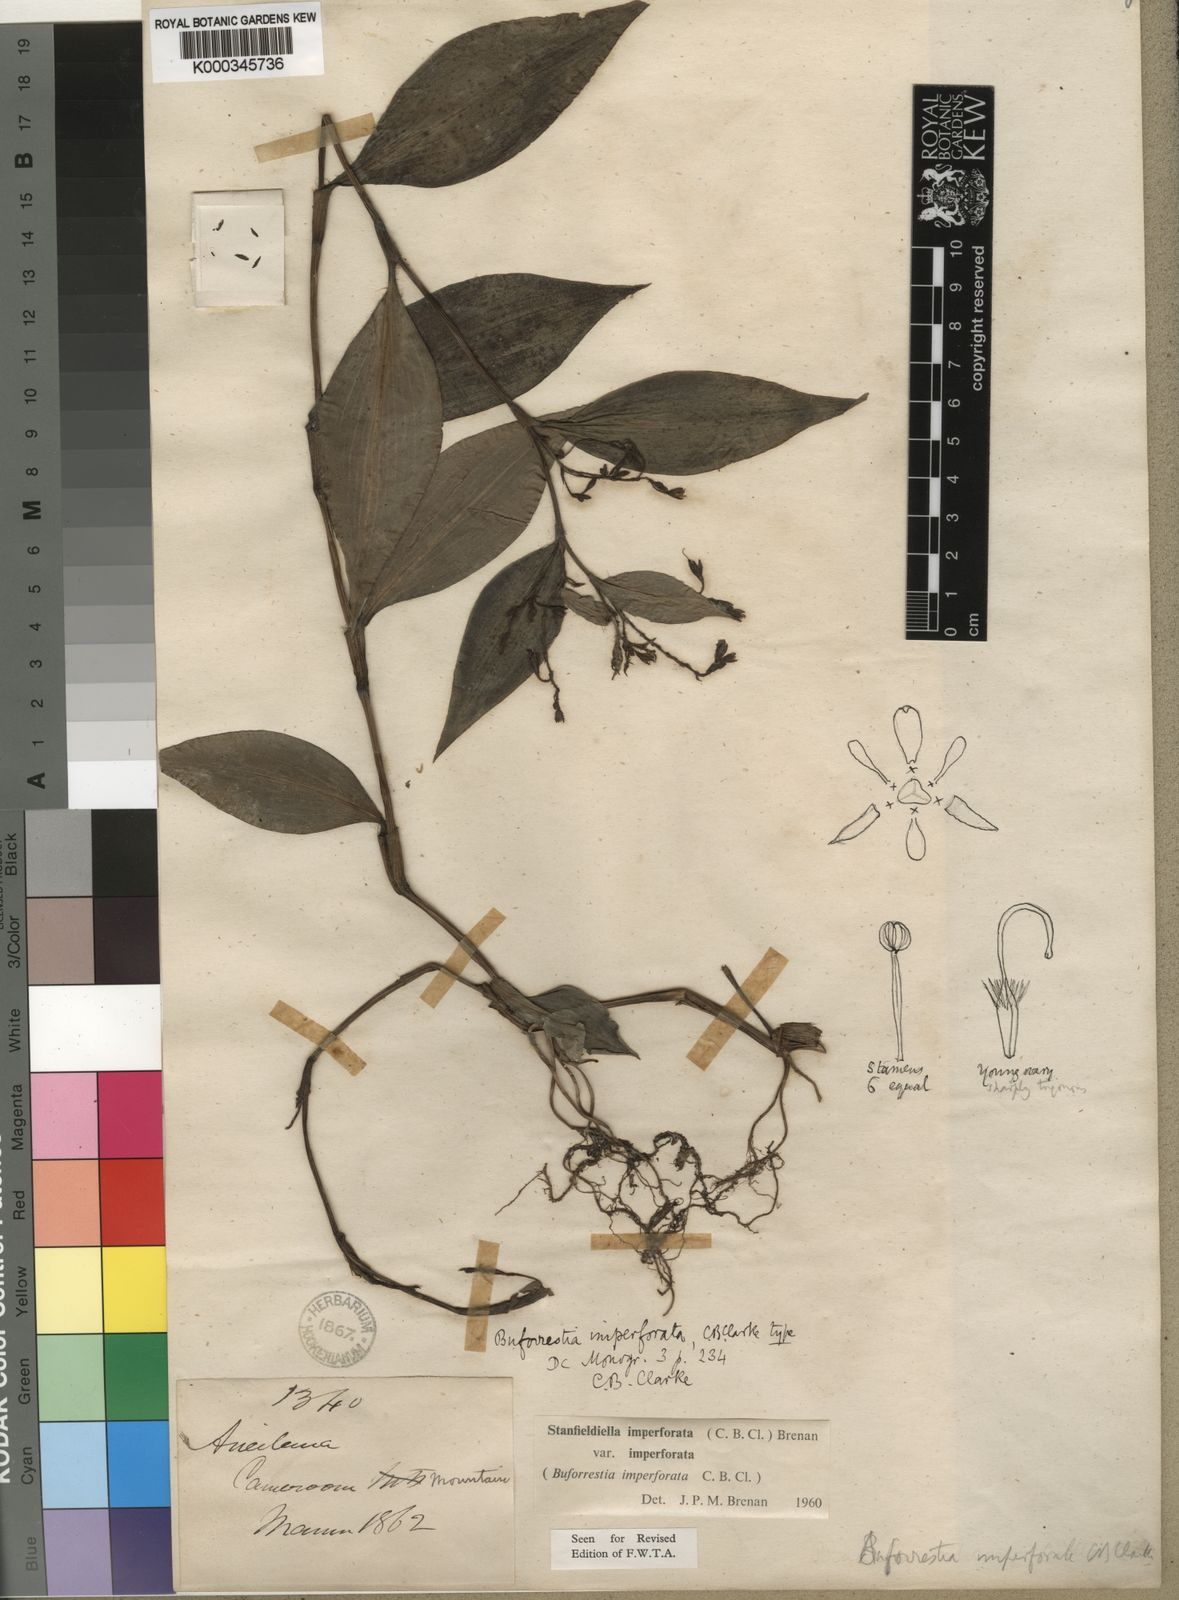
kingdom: Plantae
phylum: Tracheophyta
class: Liliopsida
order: Commelinales
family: Commelinaceae
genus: Stanfieldiella
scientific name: Stanfieldiella imperforata
